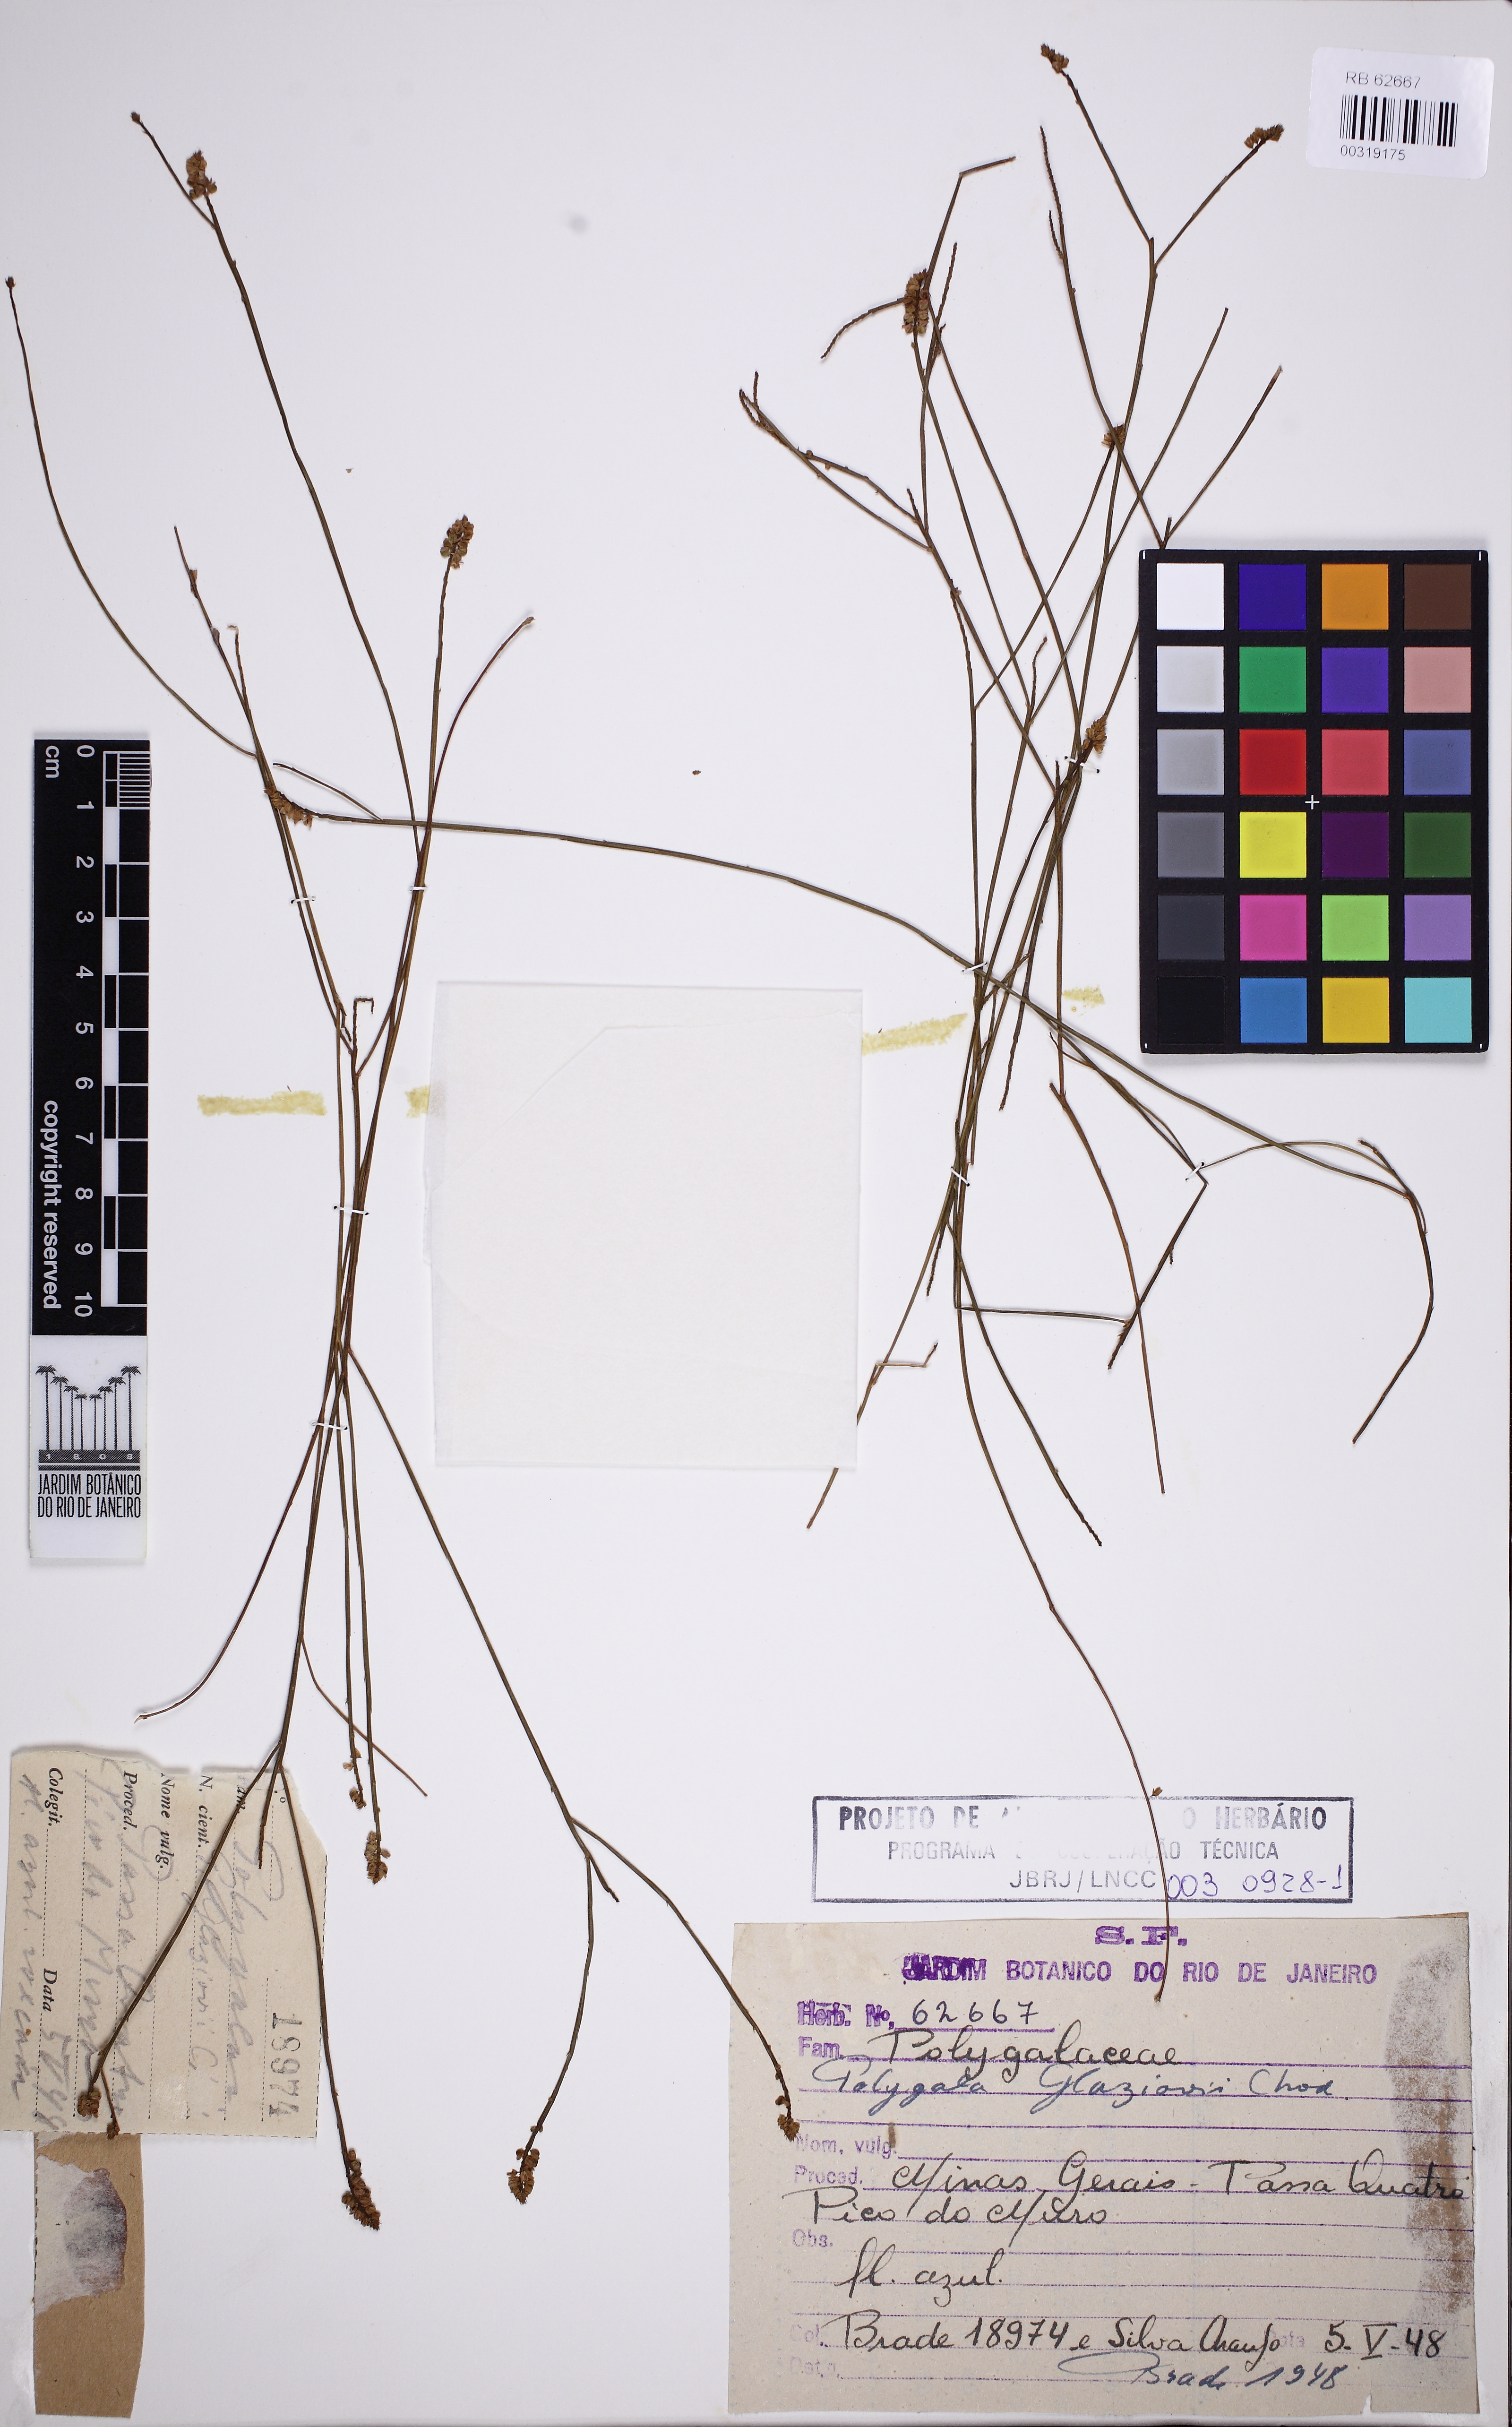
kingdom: Plantae
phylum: Tracheophyta
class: Magnoliopsida
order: Fabales
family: Polygalaceae
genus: Polygala
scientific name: Polygala Senega glaziovii
